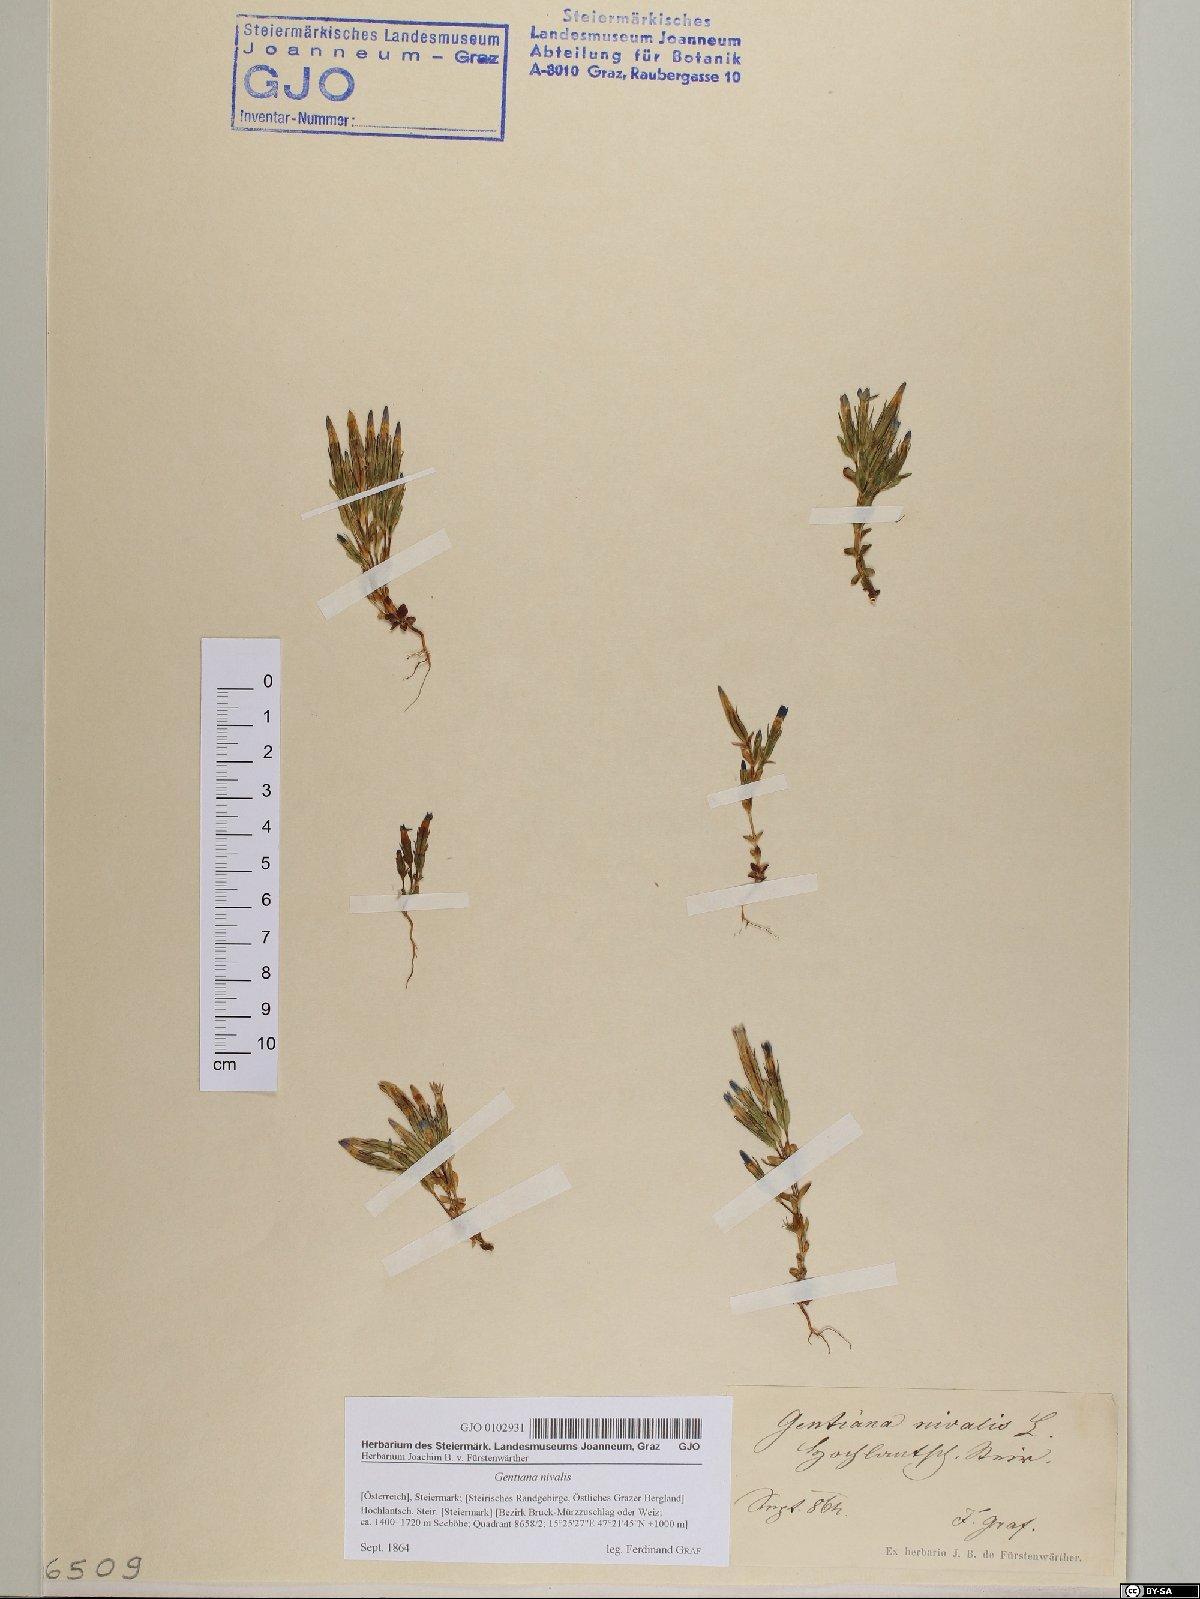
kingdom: Plantae
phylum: Tracheophyta
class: Magnoliopsida
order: Gentianales
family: Gentianaceae
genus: Gentiana
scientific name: Gentiana nivalis
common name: Alpine gentian
